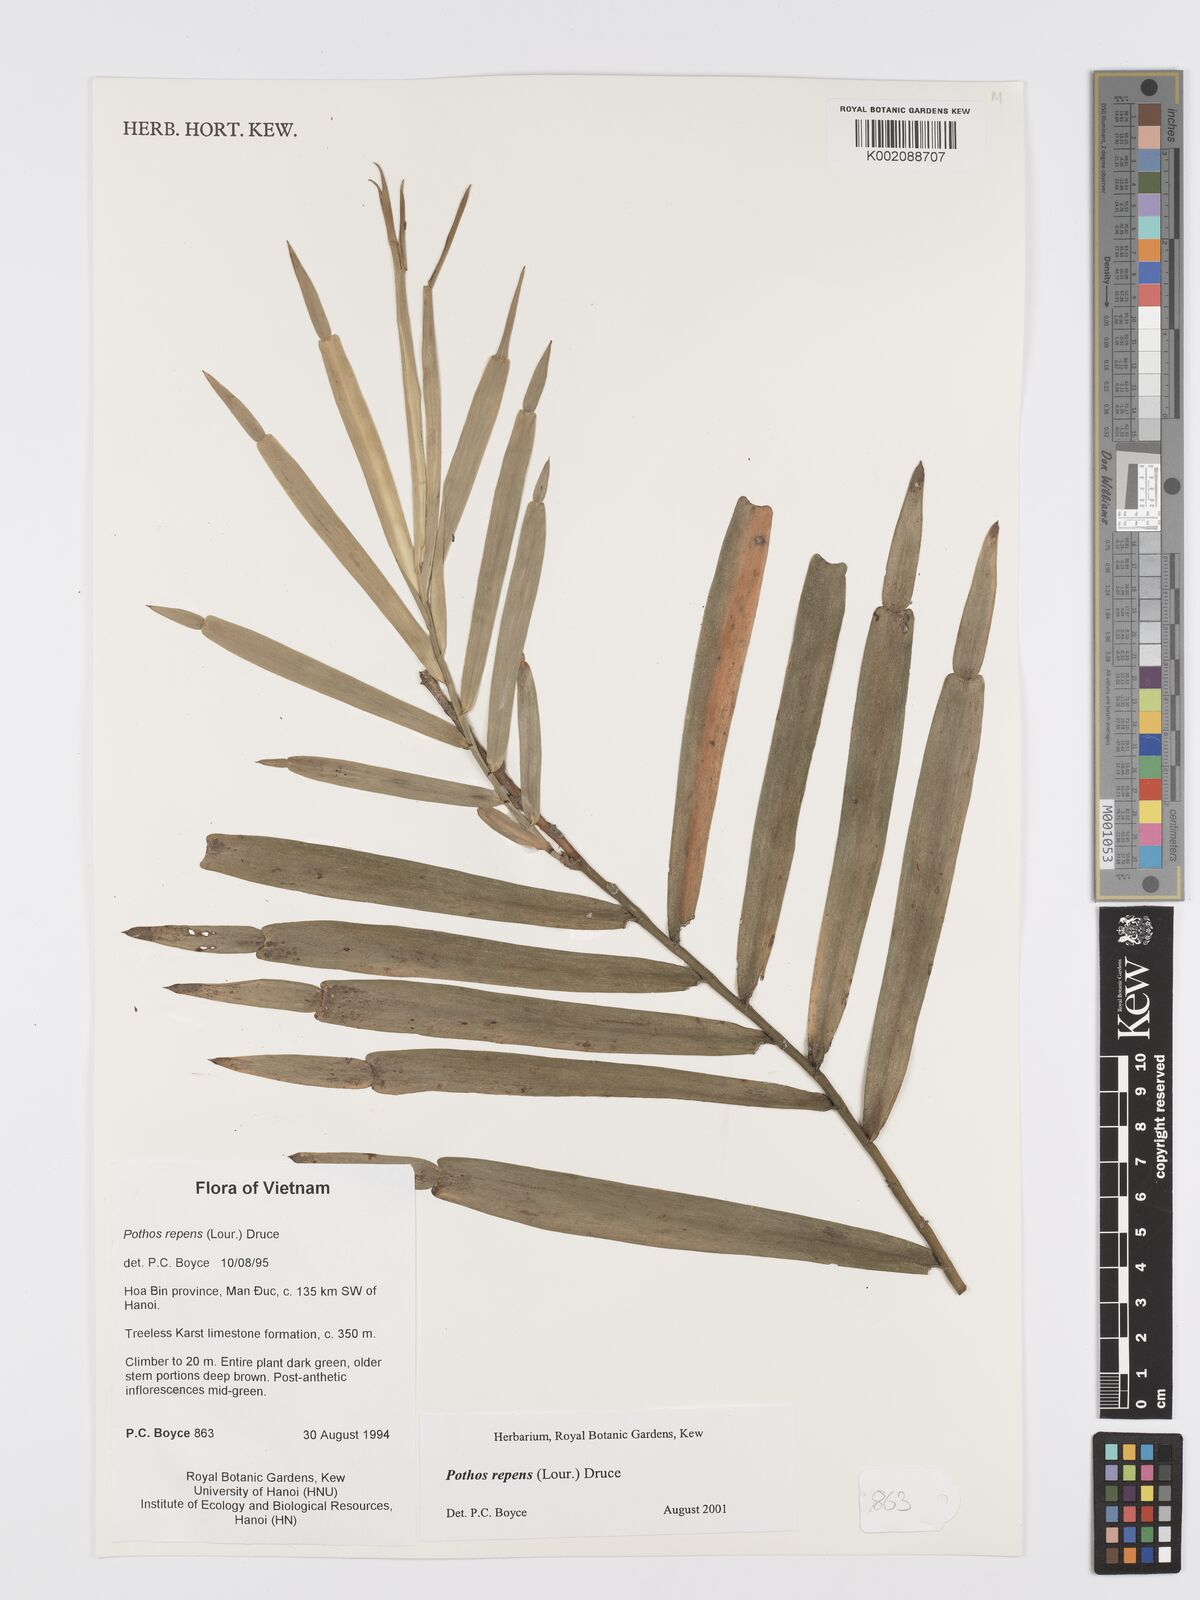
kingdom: Plantae
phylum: Tracheophyta
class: Liliopsida
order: Alismatales
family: Araceae
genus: Pothos
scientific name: Pothos repens
